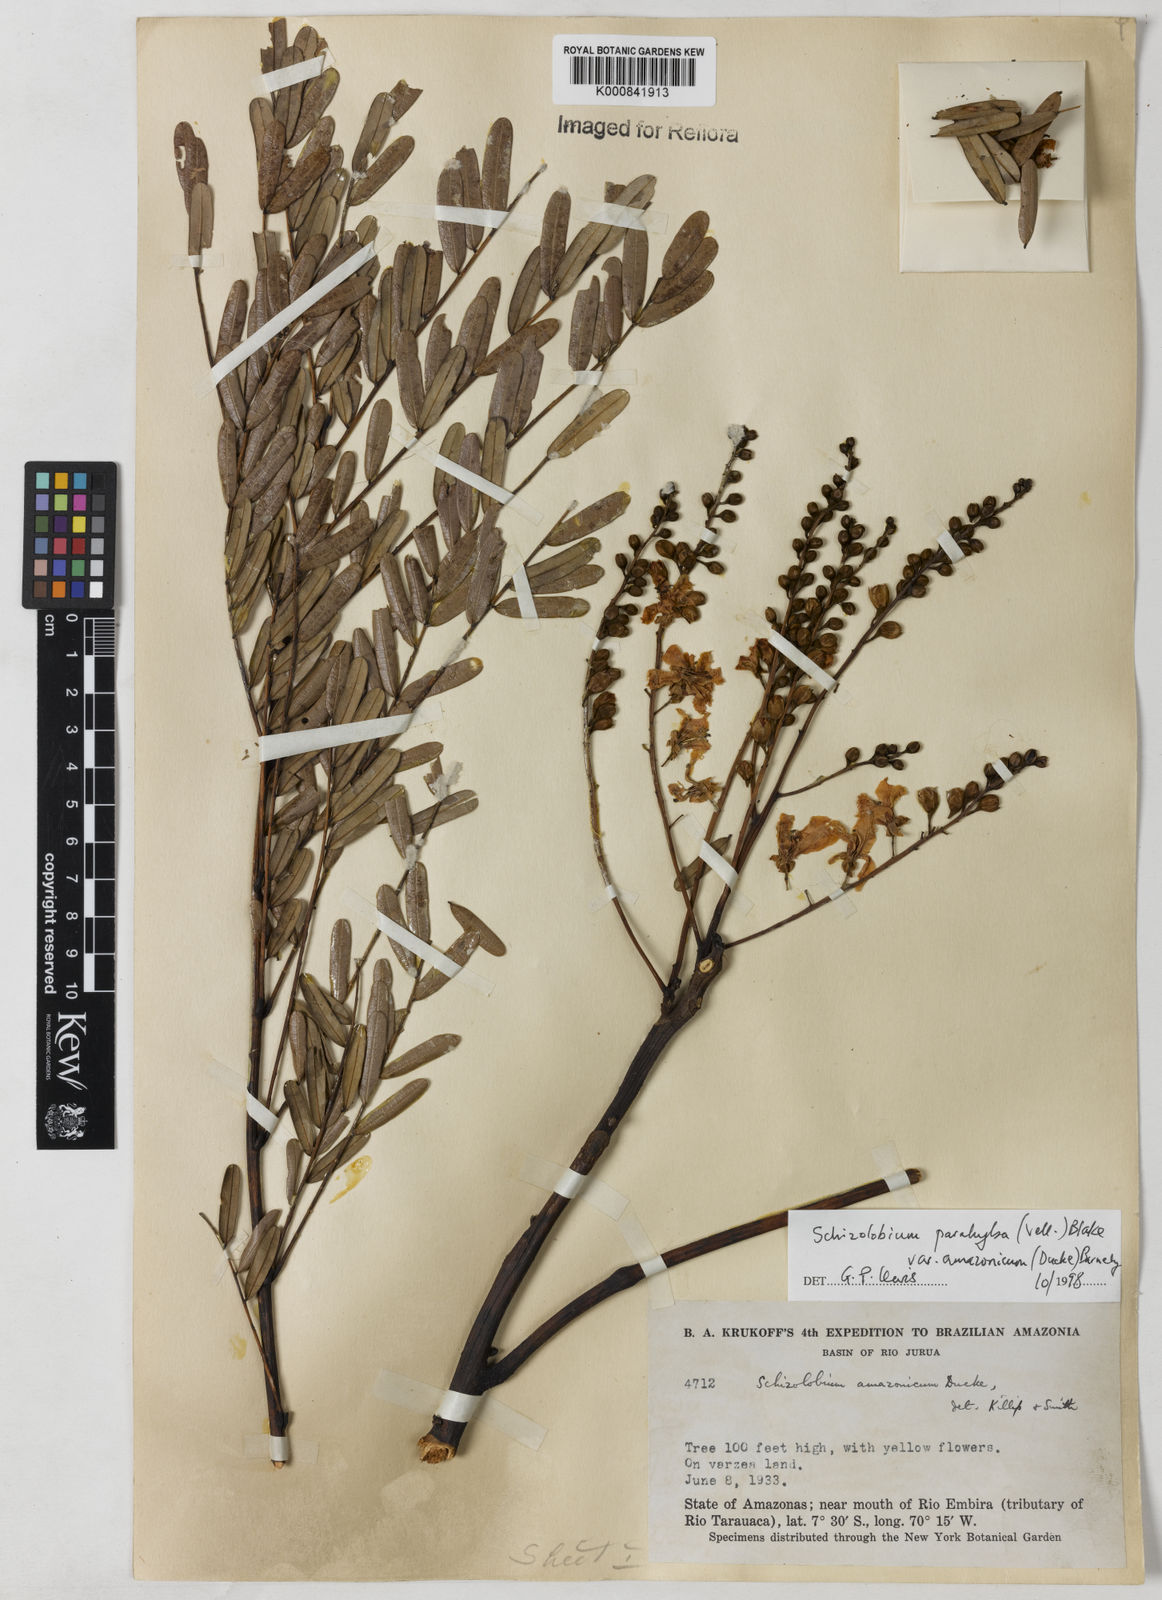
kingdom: Plantae
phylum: Tracheophyta
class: Magnoliopsida
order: Fabales
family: Fabaceae
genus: Schizolobium
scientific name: Schizolobium parahyba
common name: Brazilian firetree
